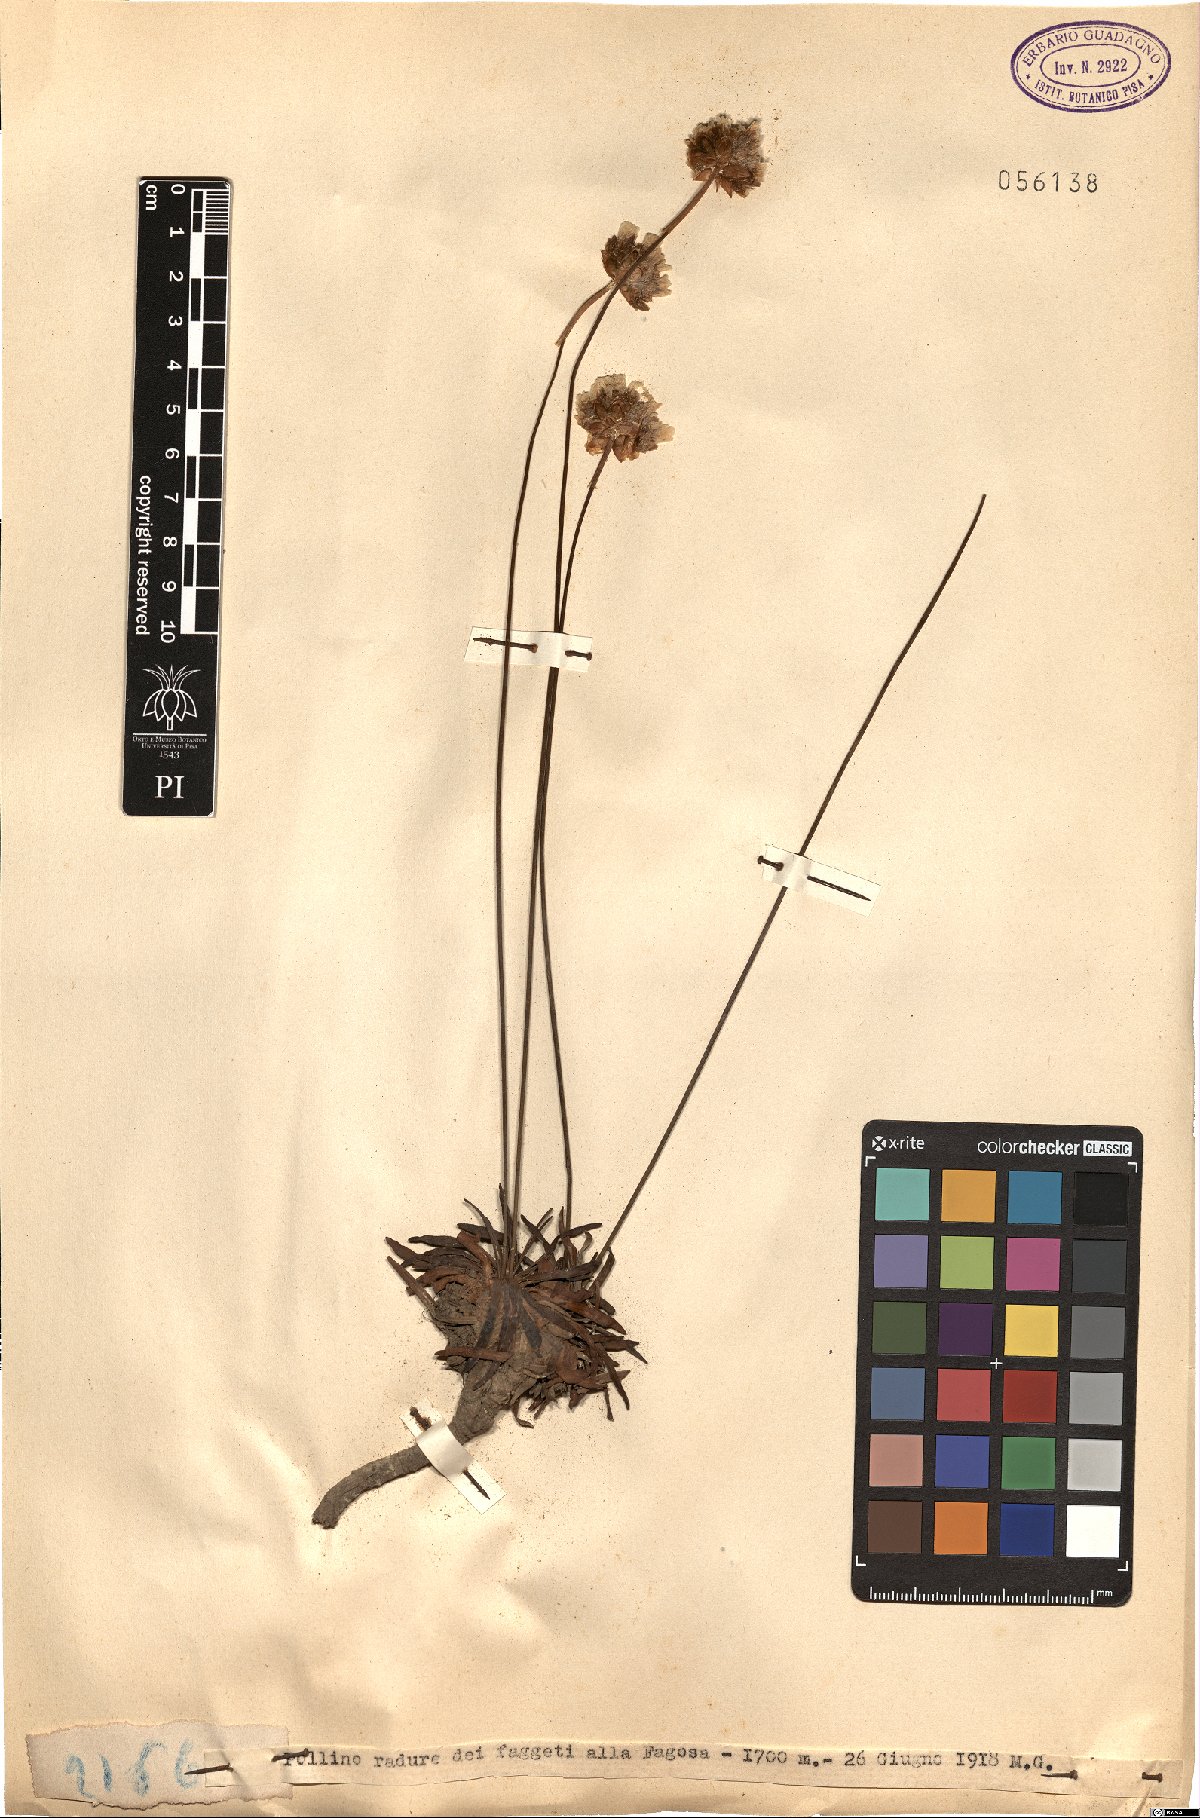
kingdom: Plantae
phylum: Tracheophyta
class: Magnoliopsida
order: Caryophyllales
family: Plumbaginaceae
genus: Armeria
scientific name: Armeria
